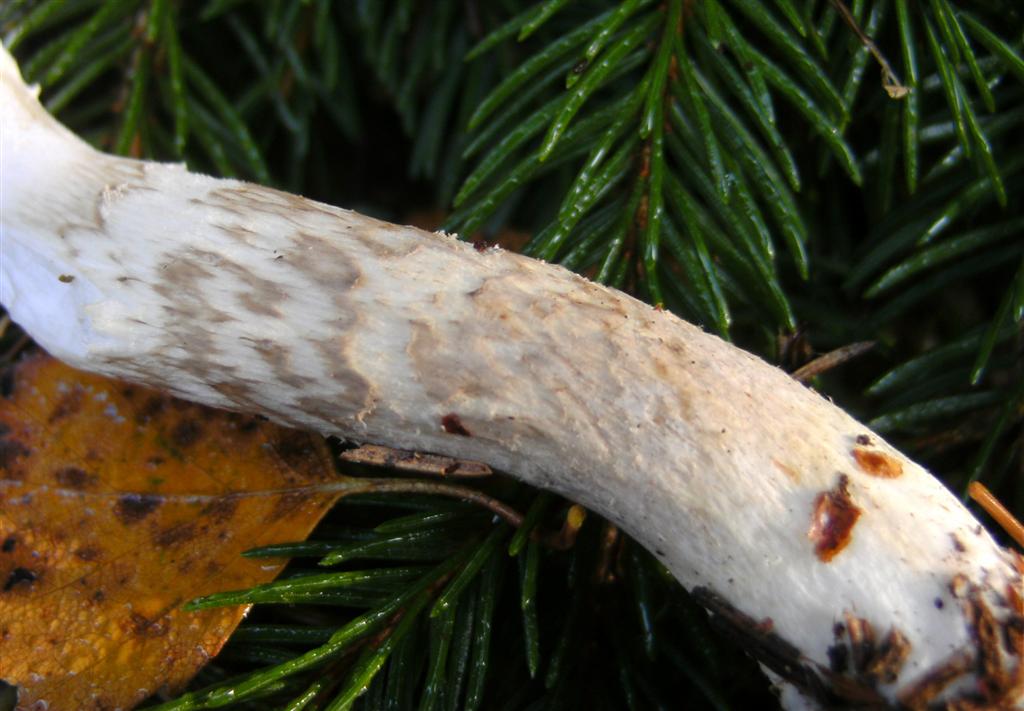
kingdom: Fungi
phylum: Basidiomycota
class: Agaricomycetes
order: Agaricales
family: Hygrophoraceae
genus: Hygrophorus
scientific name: Hygrophorus olivaceoalbus
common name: hvidbrun sneglehat
